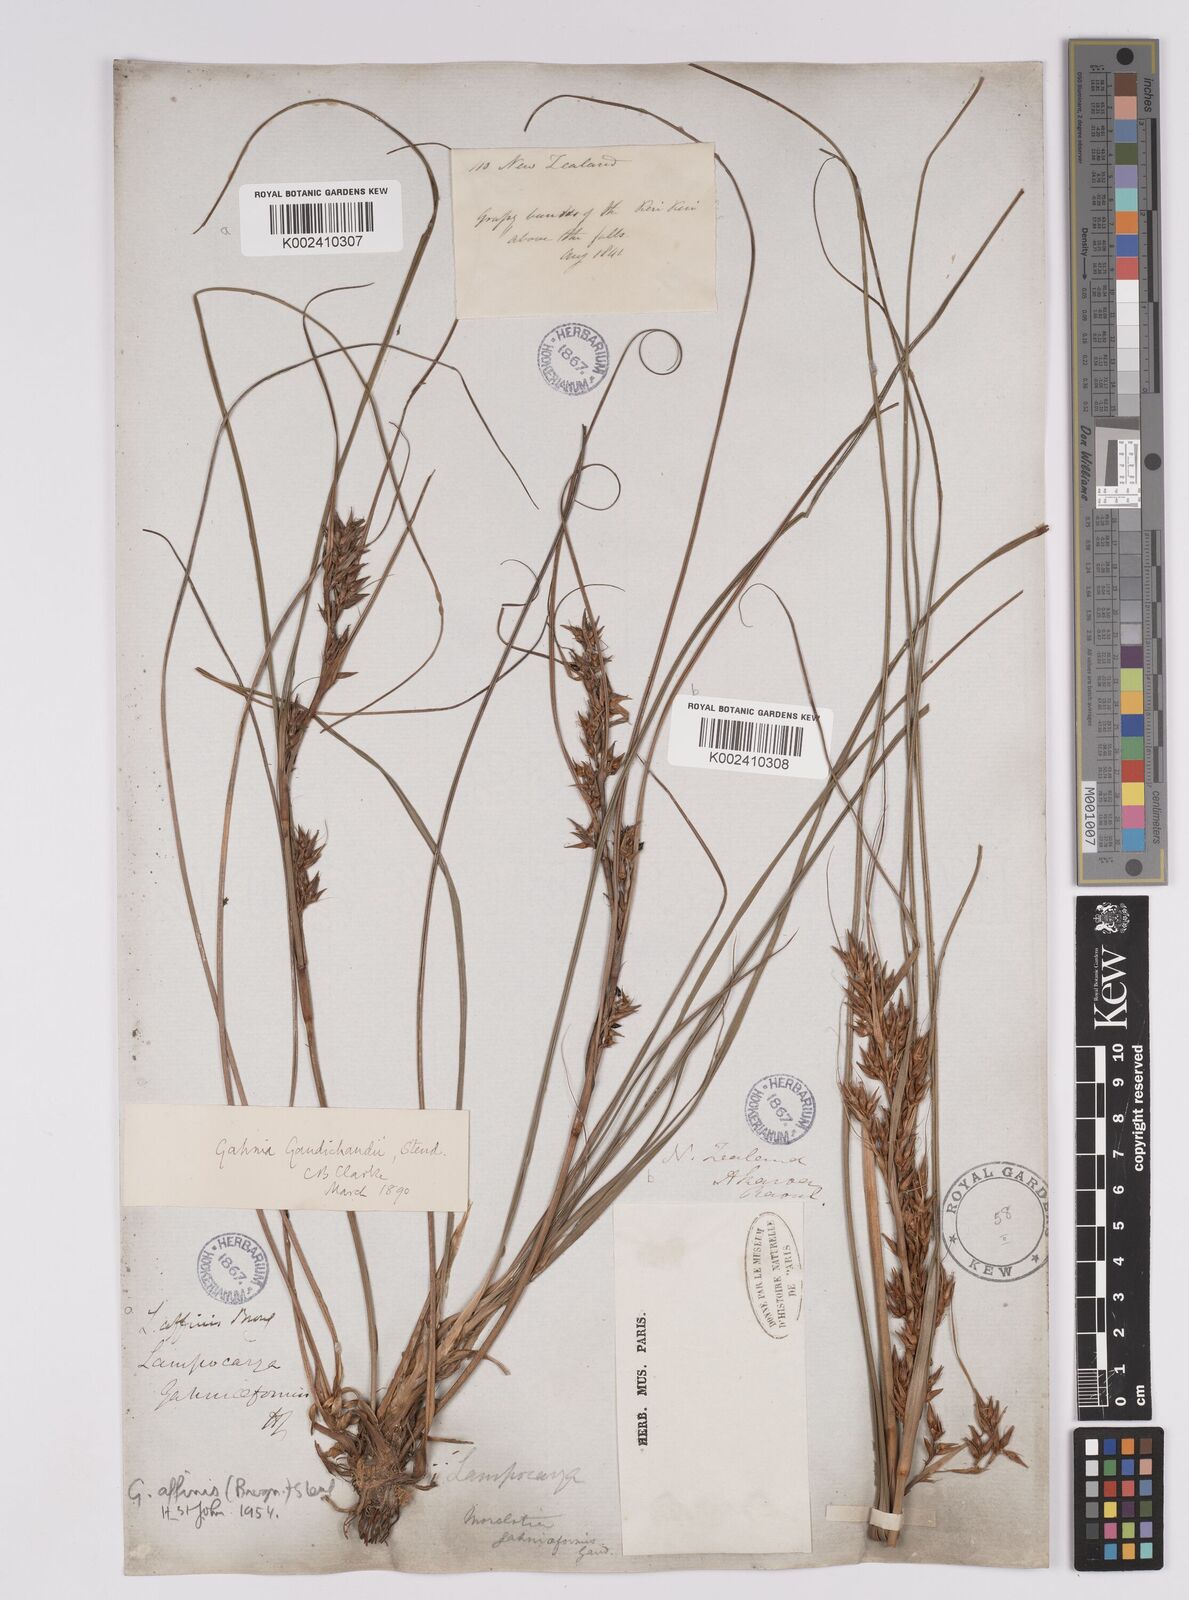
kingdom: Plantae
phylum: Tracheophyta
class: Liliopsida
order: Poales
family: Cyperaceae
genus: Morelotia
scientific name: Morelotia affinis
